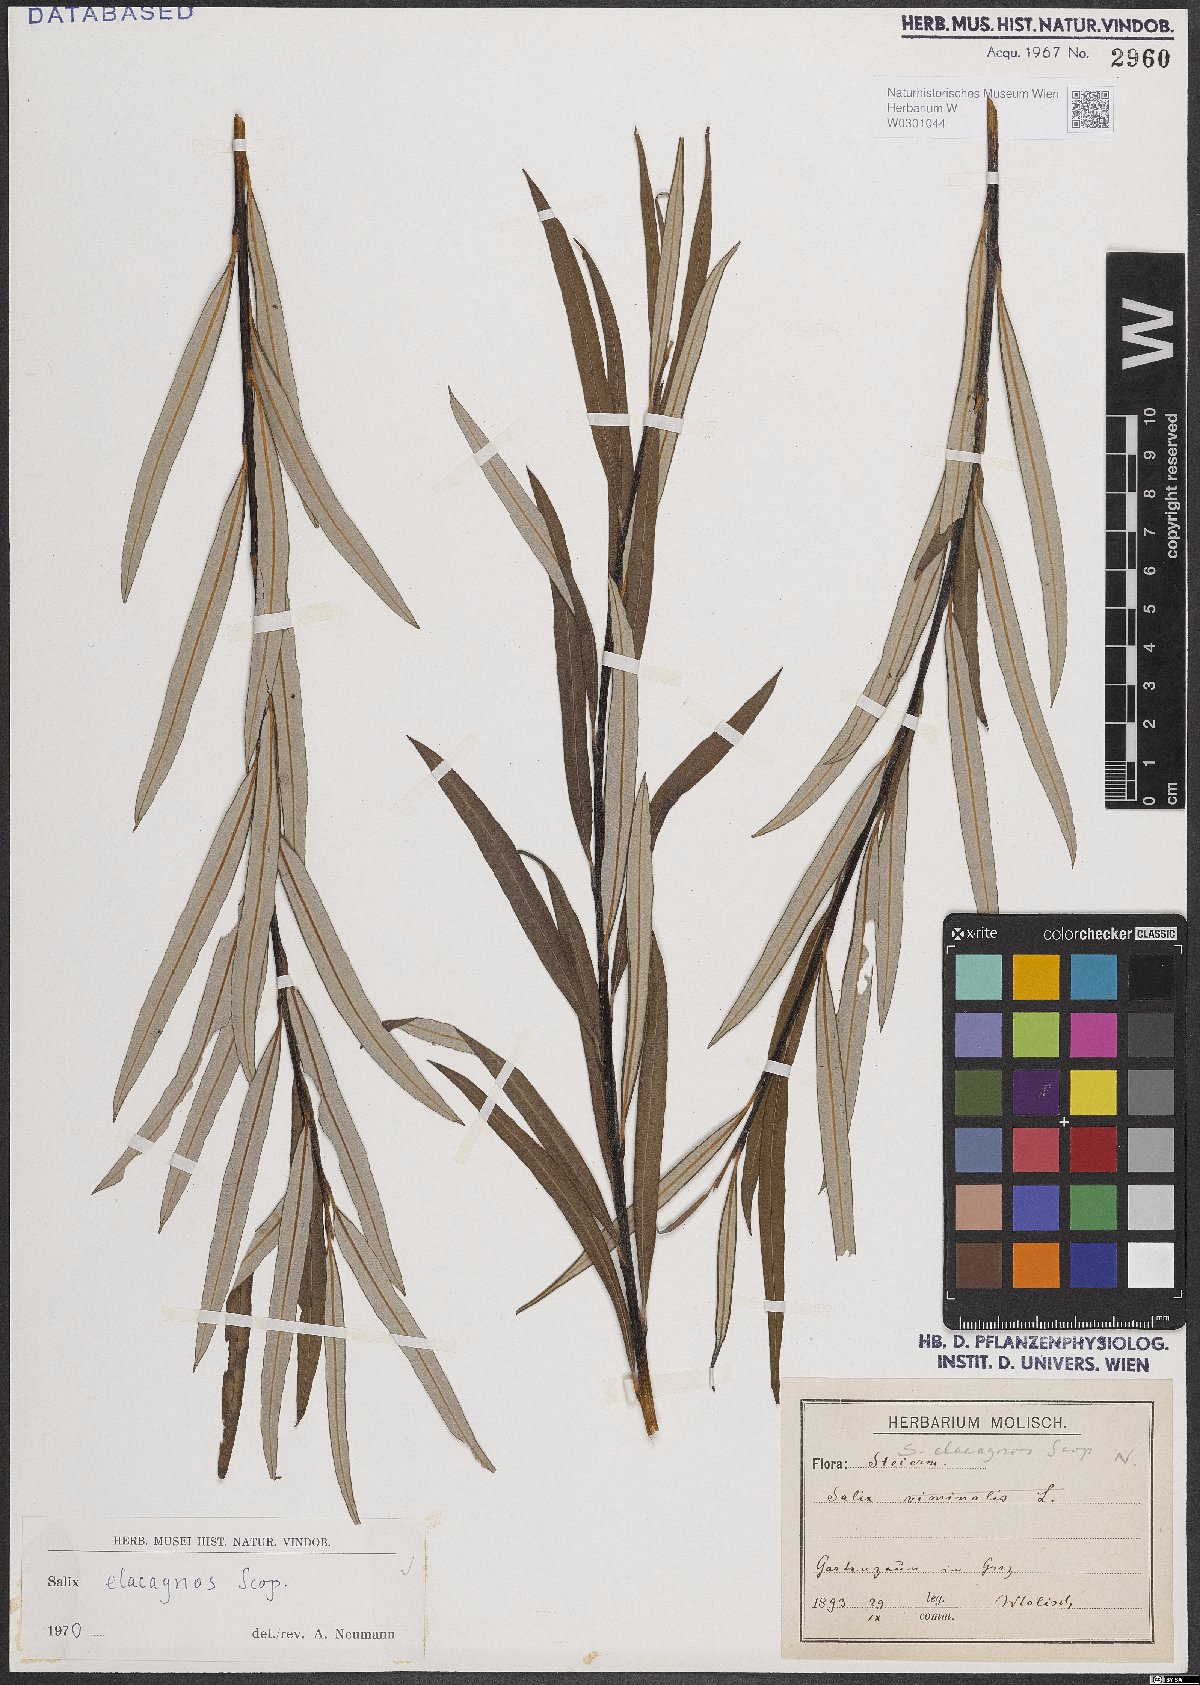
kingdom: Plantae
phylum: Tracheophyta
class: Magnoliopsida
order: Malpighiales
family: Salicaceae
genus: Salix
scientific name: Salix eleagnos
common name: Elaeagnus willow
